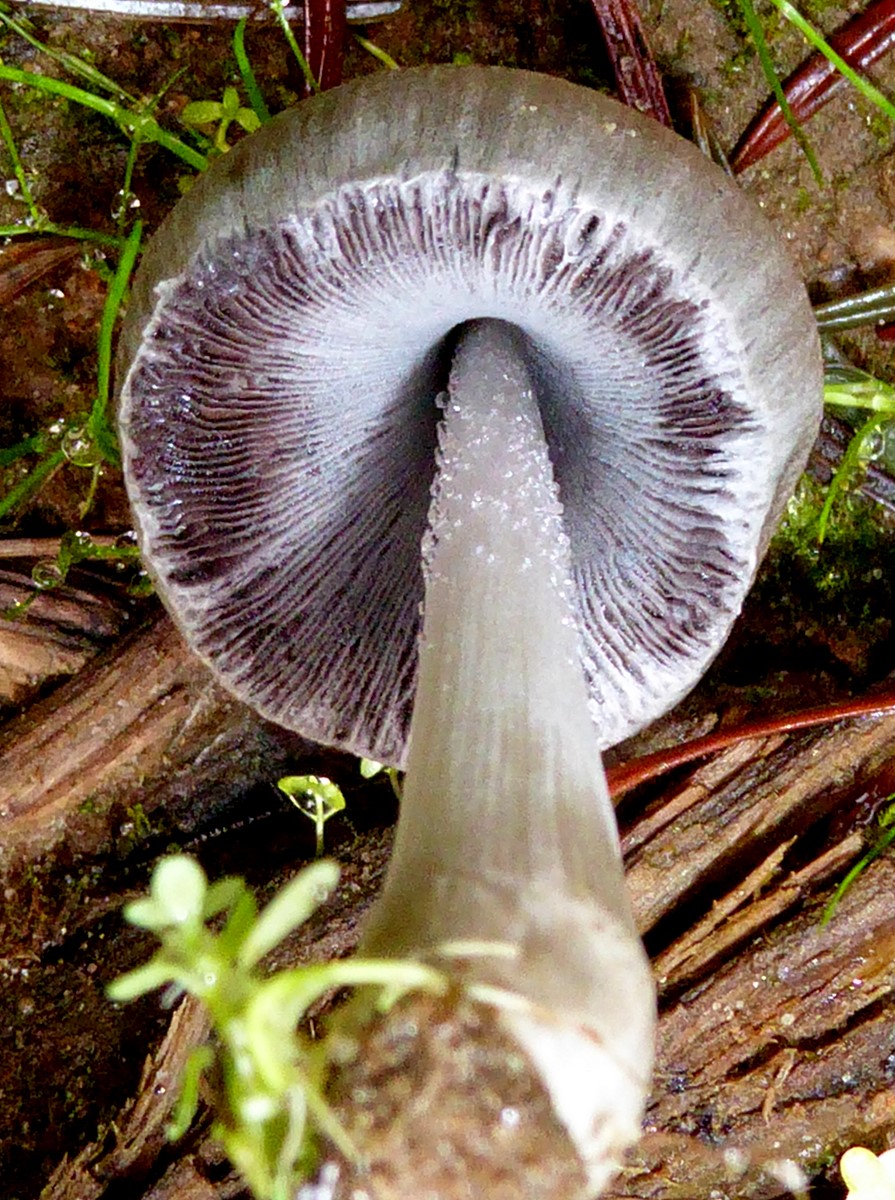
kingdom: Fungi
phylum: Basidiomycota
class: Agaricomycetes
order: Agaricales
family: Psathyrellaceae
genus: Coprinopsis
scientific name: Coprinopsis atramentaria
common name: almindelig blækhat
